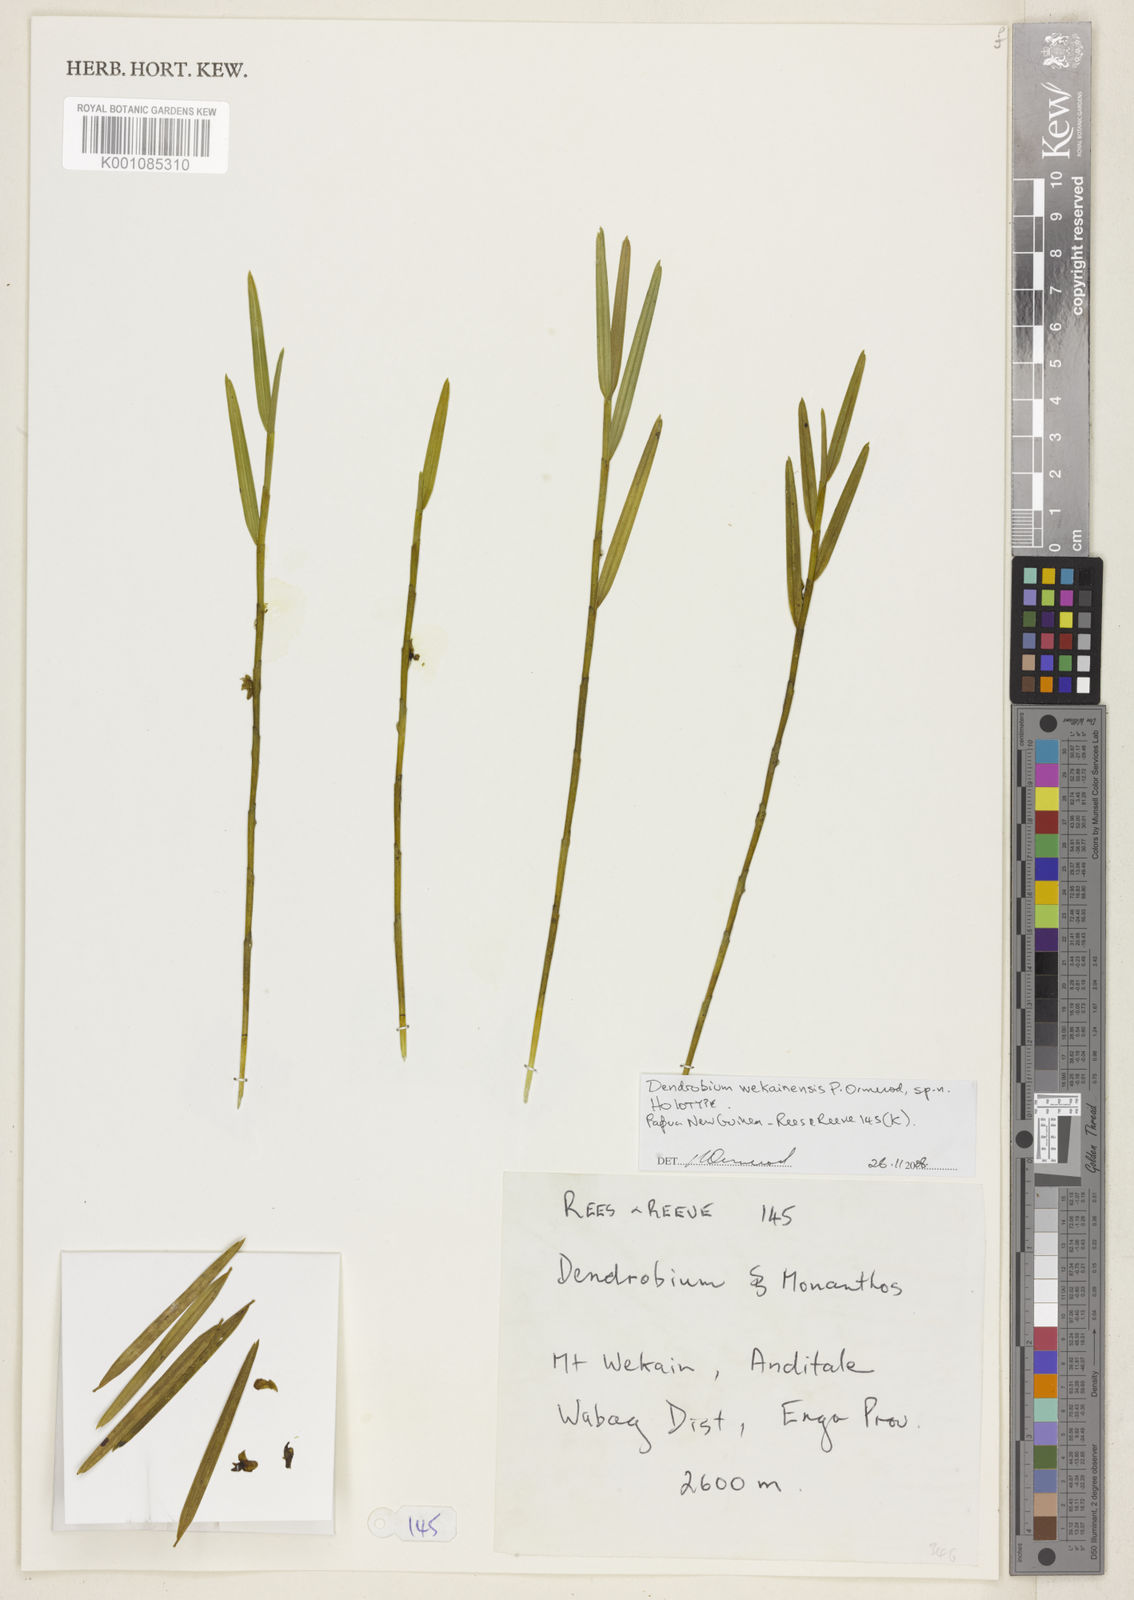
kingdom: Plantae
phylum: Tracheophyta
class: Liliopsida
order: Asparagales
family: Orchidaceae
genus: Dendrobium
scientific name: Dendrobium wekainense
